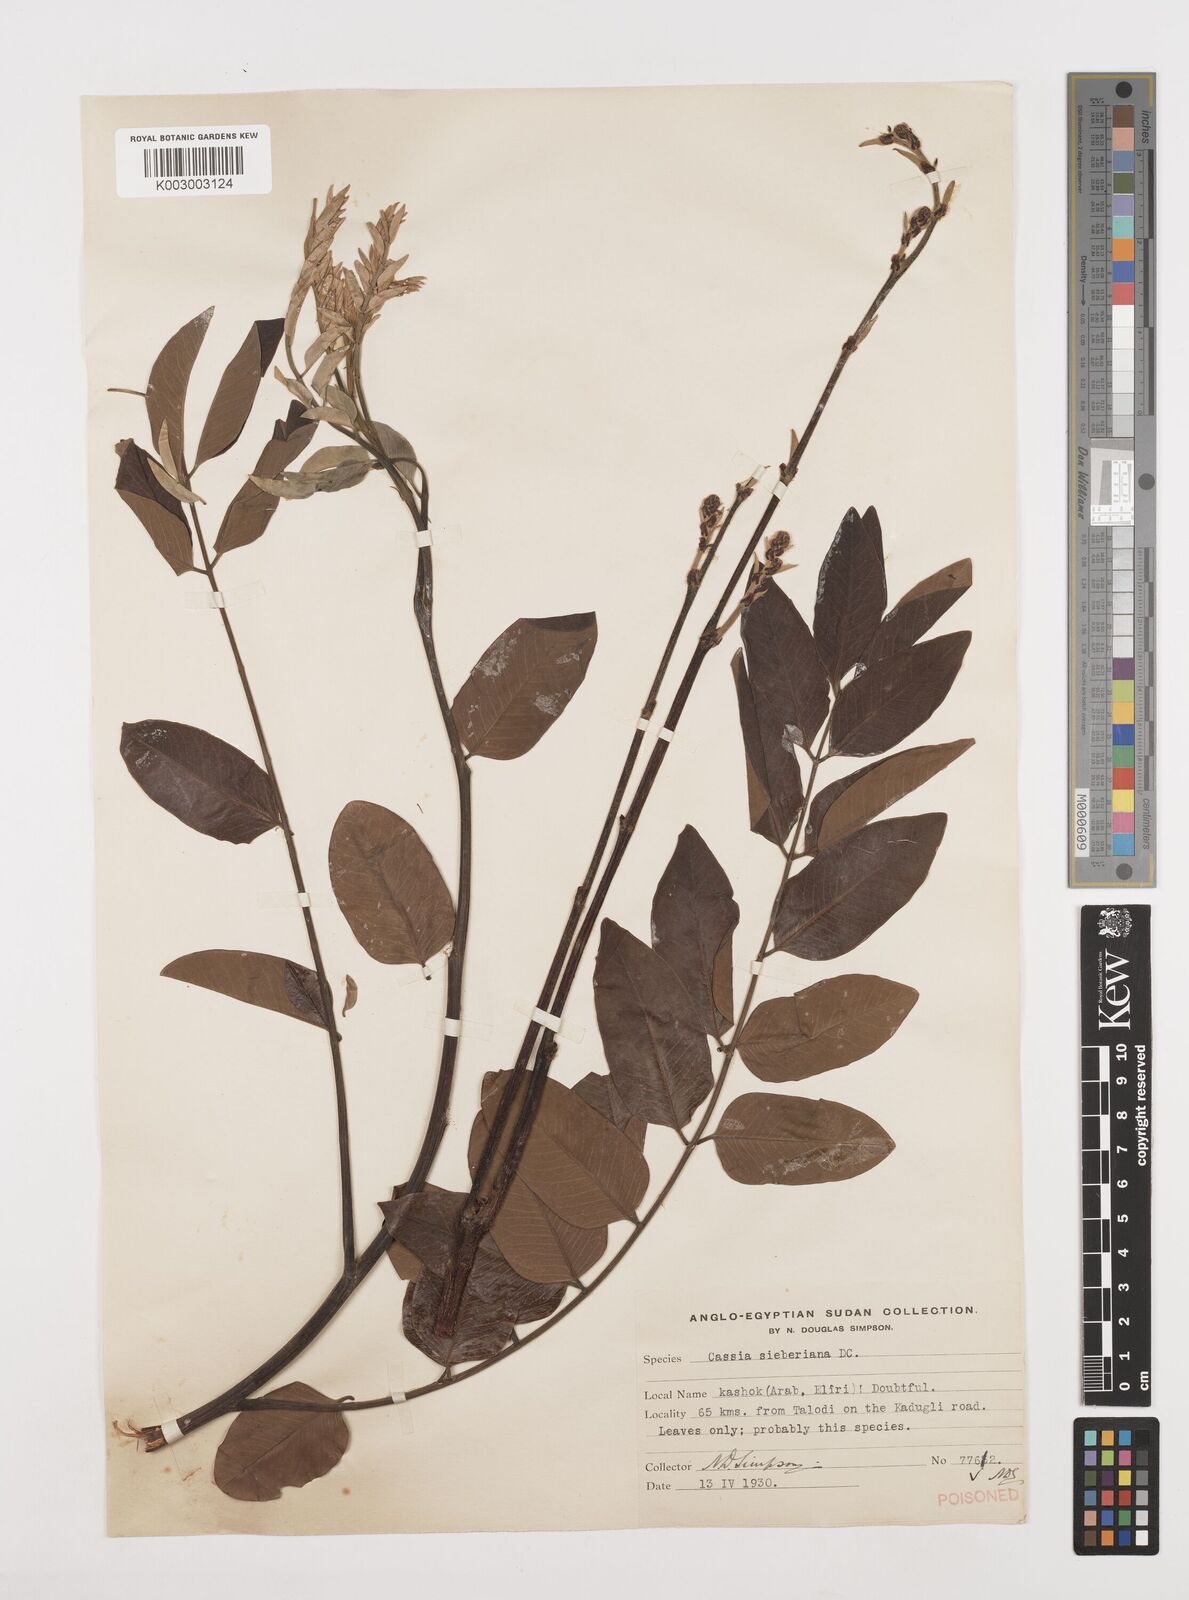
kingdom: Plantae
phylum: Tracheophyta
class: Magnoliopsida
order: Fabales
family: Fabaceae
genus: Cassia
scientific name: Cassia sieberiana
